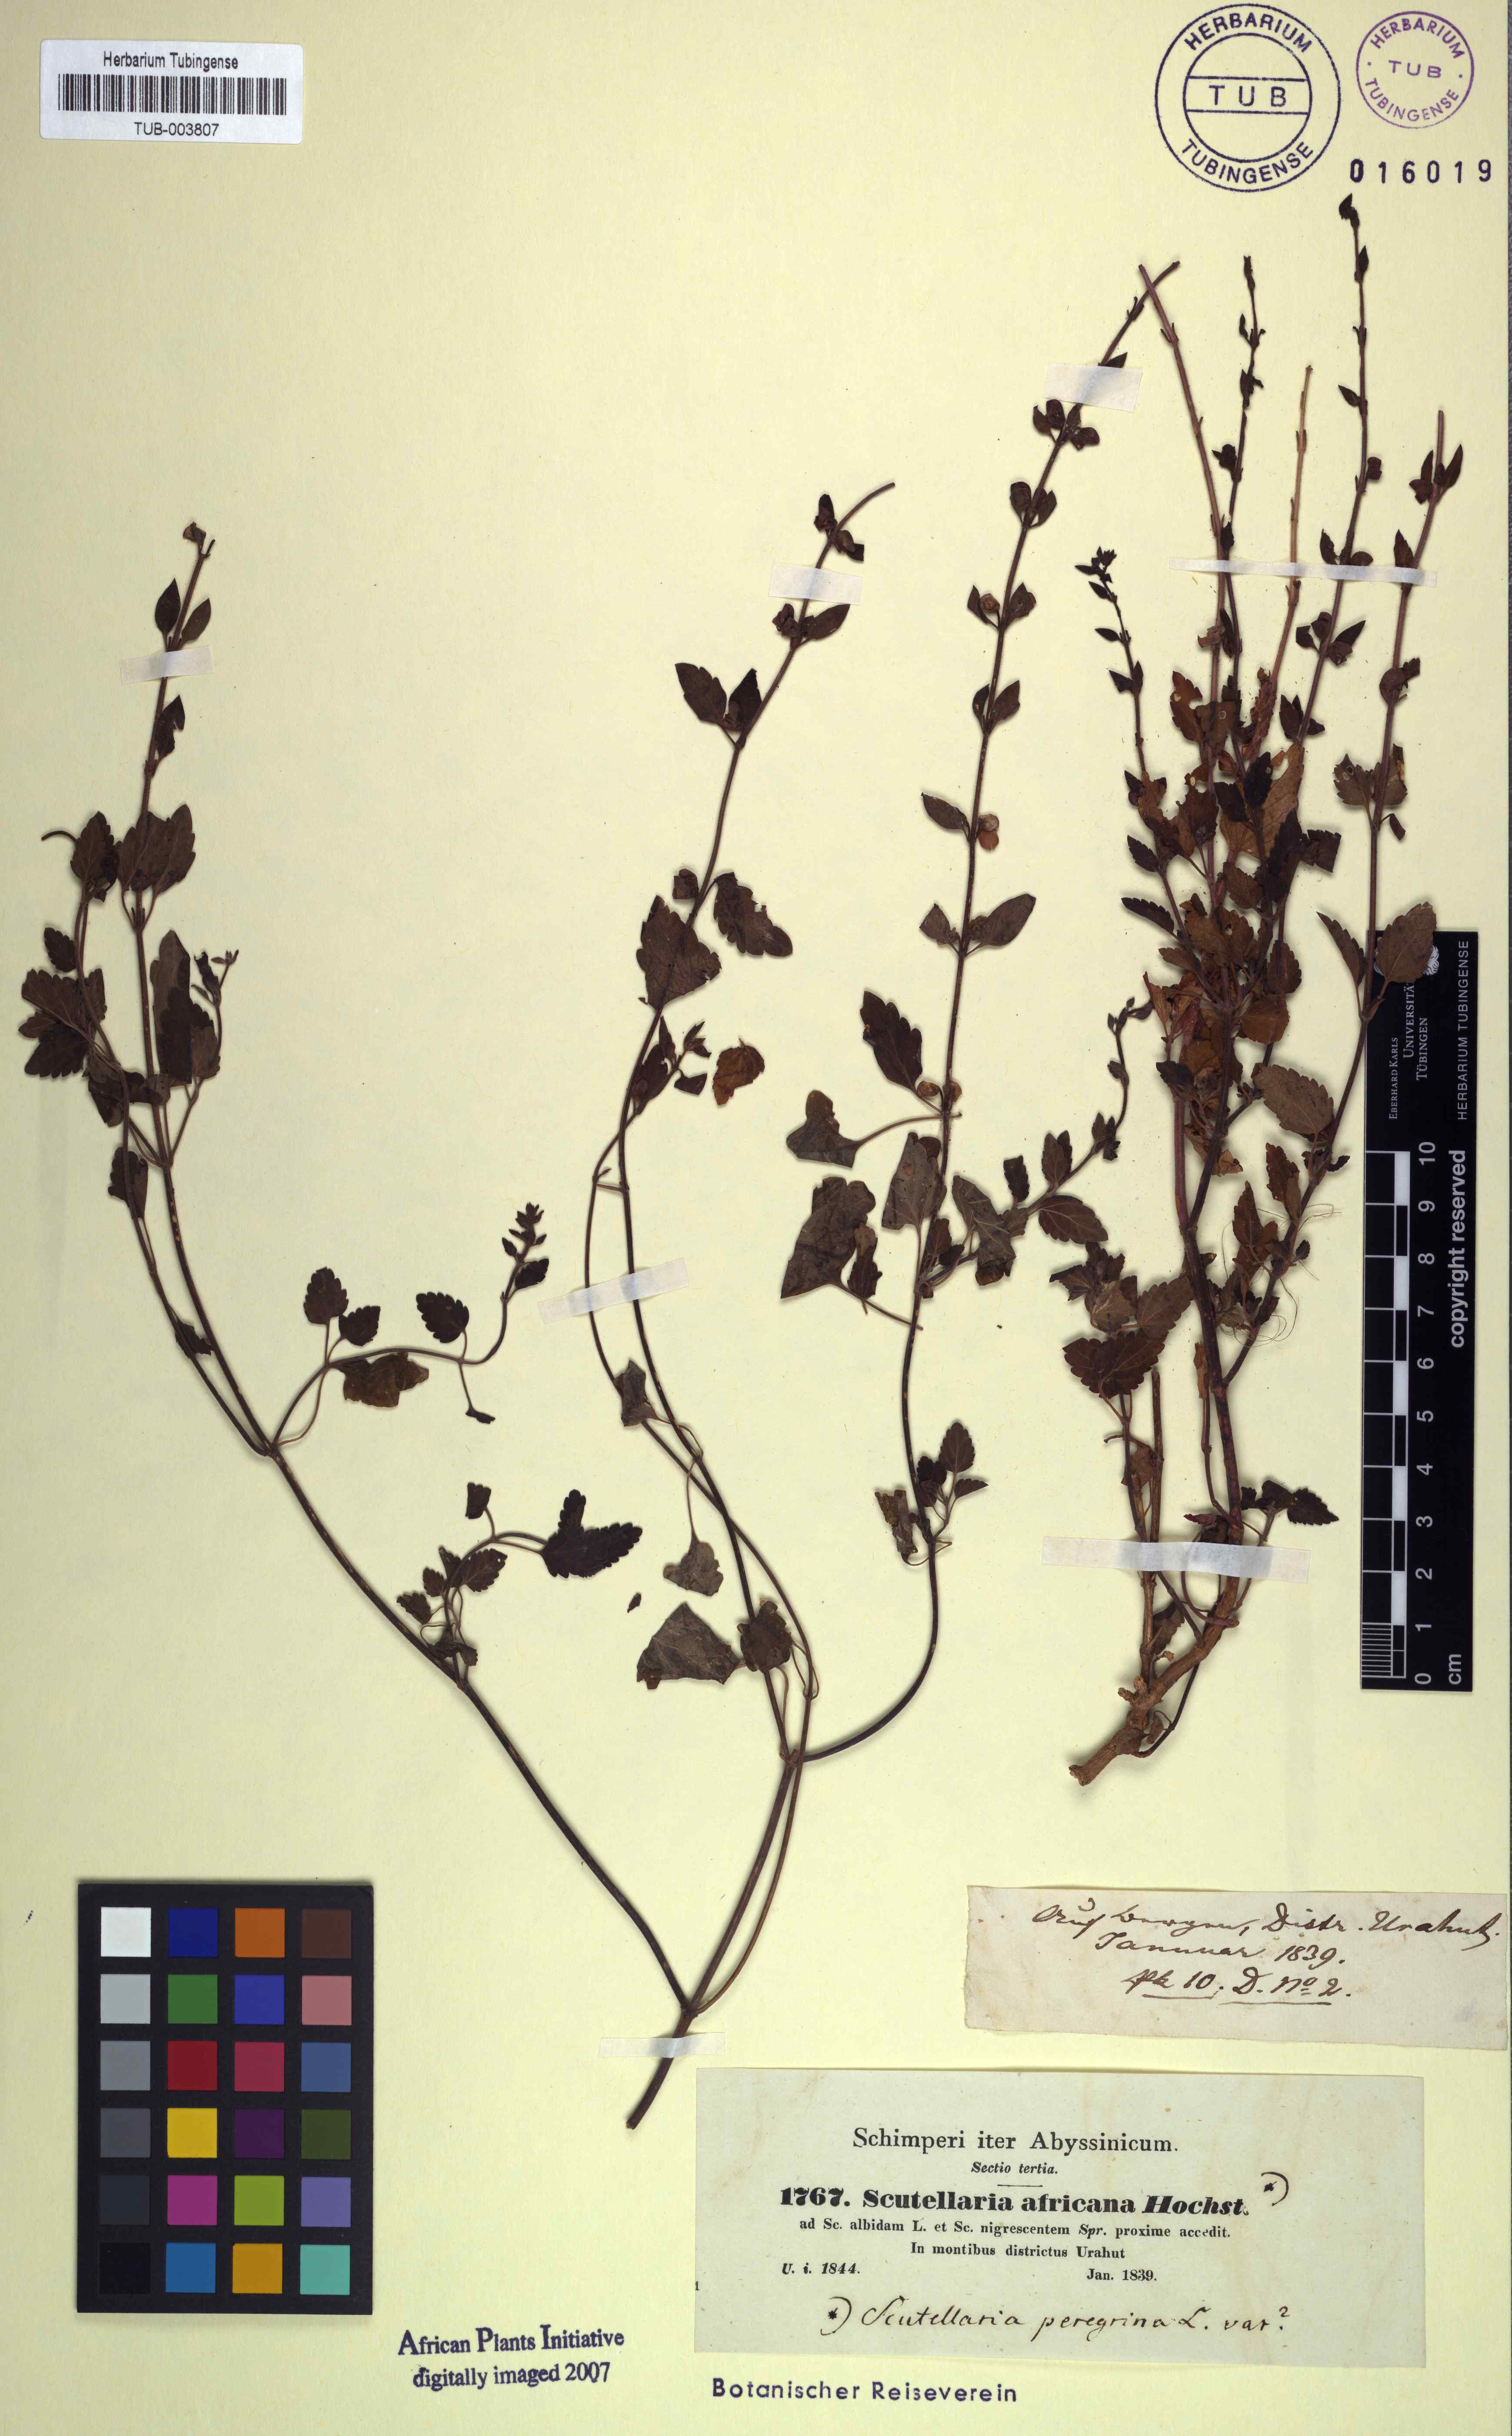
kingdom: Plantae
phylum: Tracheophyta
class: Magnoliopsida
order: Lamiales
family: Lamiaceae
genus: Scutellaria
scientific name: Scutellaria rubicunda
